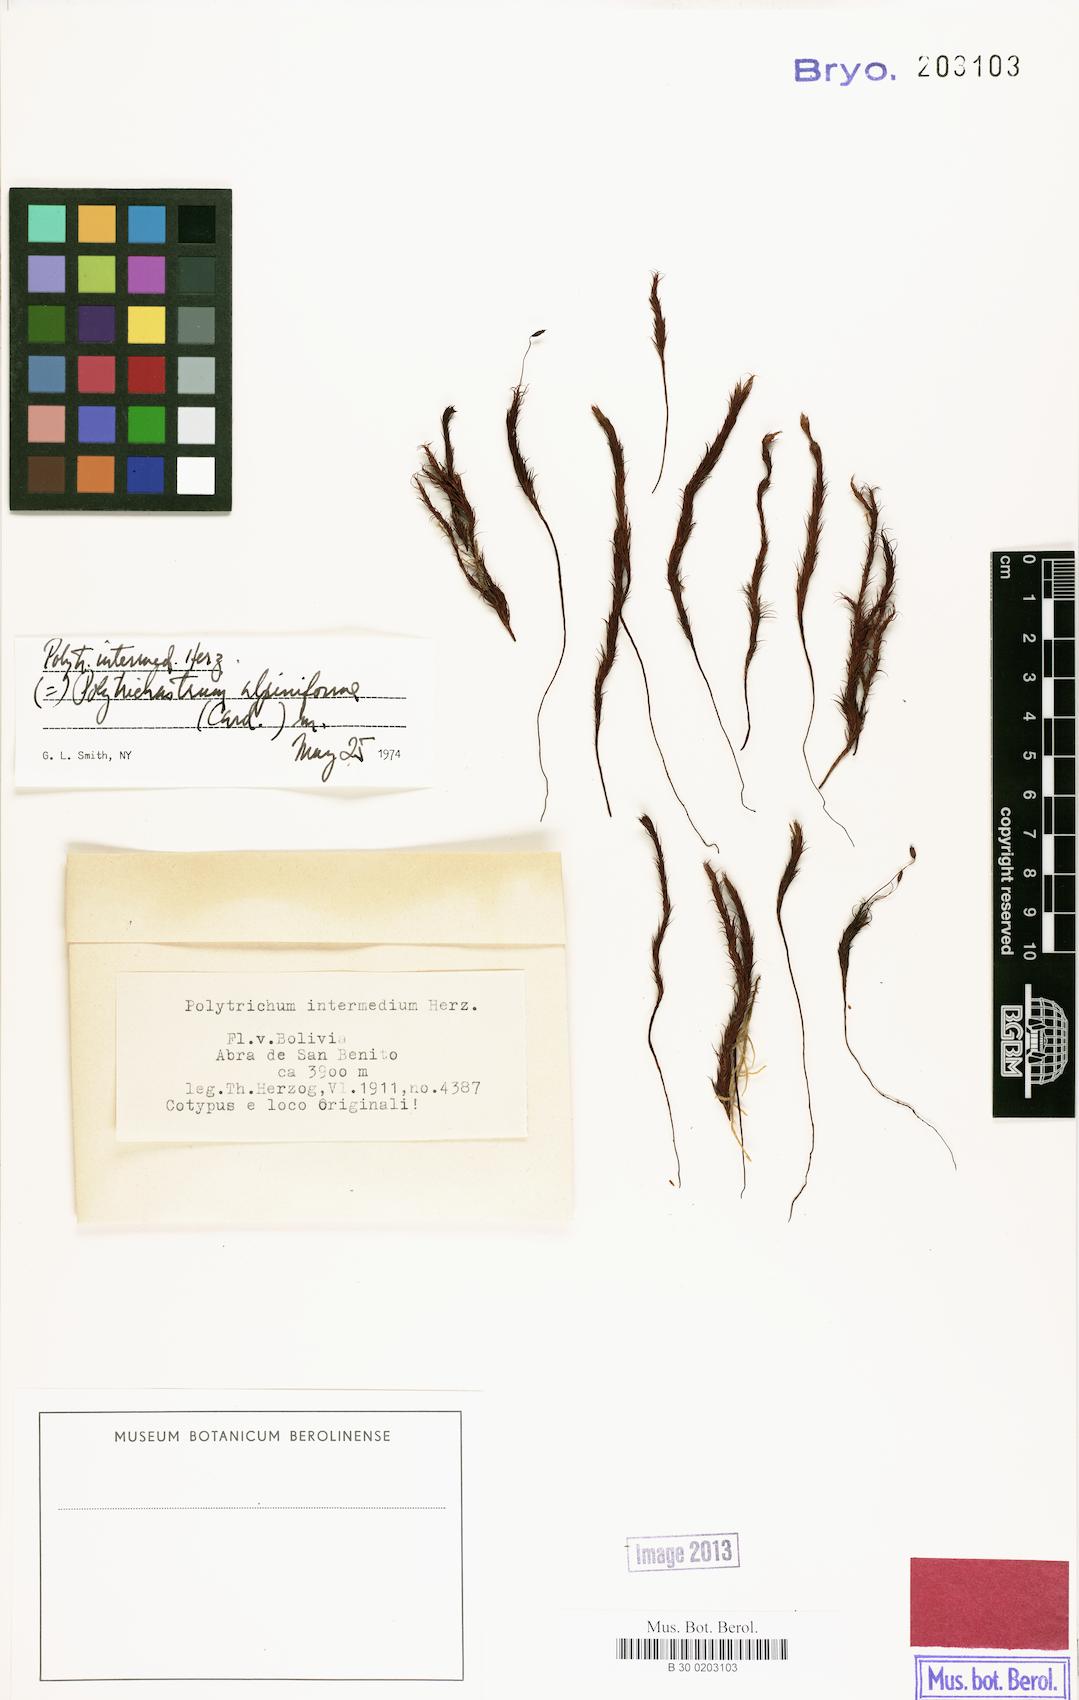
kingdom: Plantae
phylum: Bryophyta
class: Polytrichopsida
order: Polytrichales
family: Polytrichaceae
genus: Polytrichastrum
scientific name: Polytrichastrum tenellum
